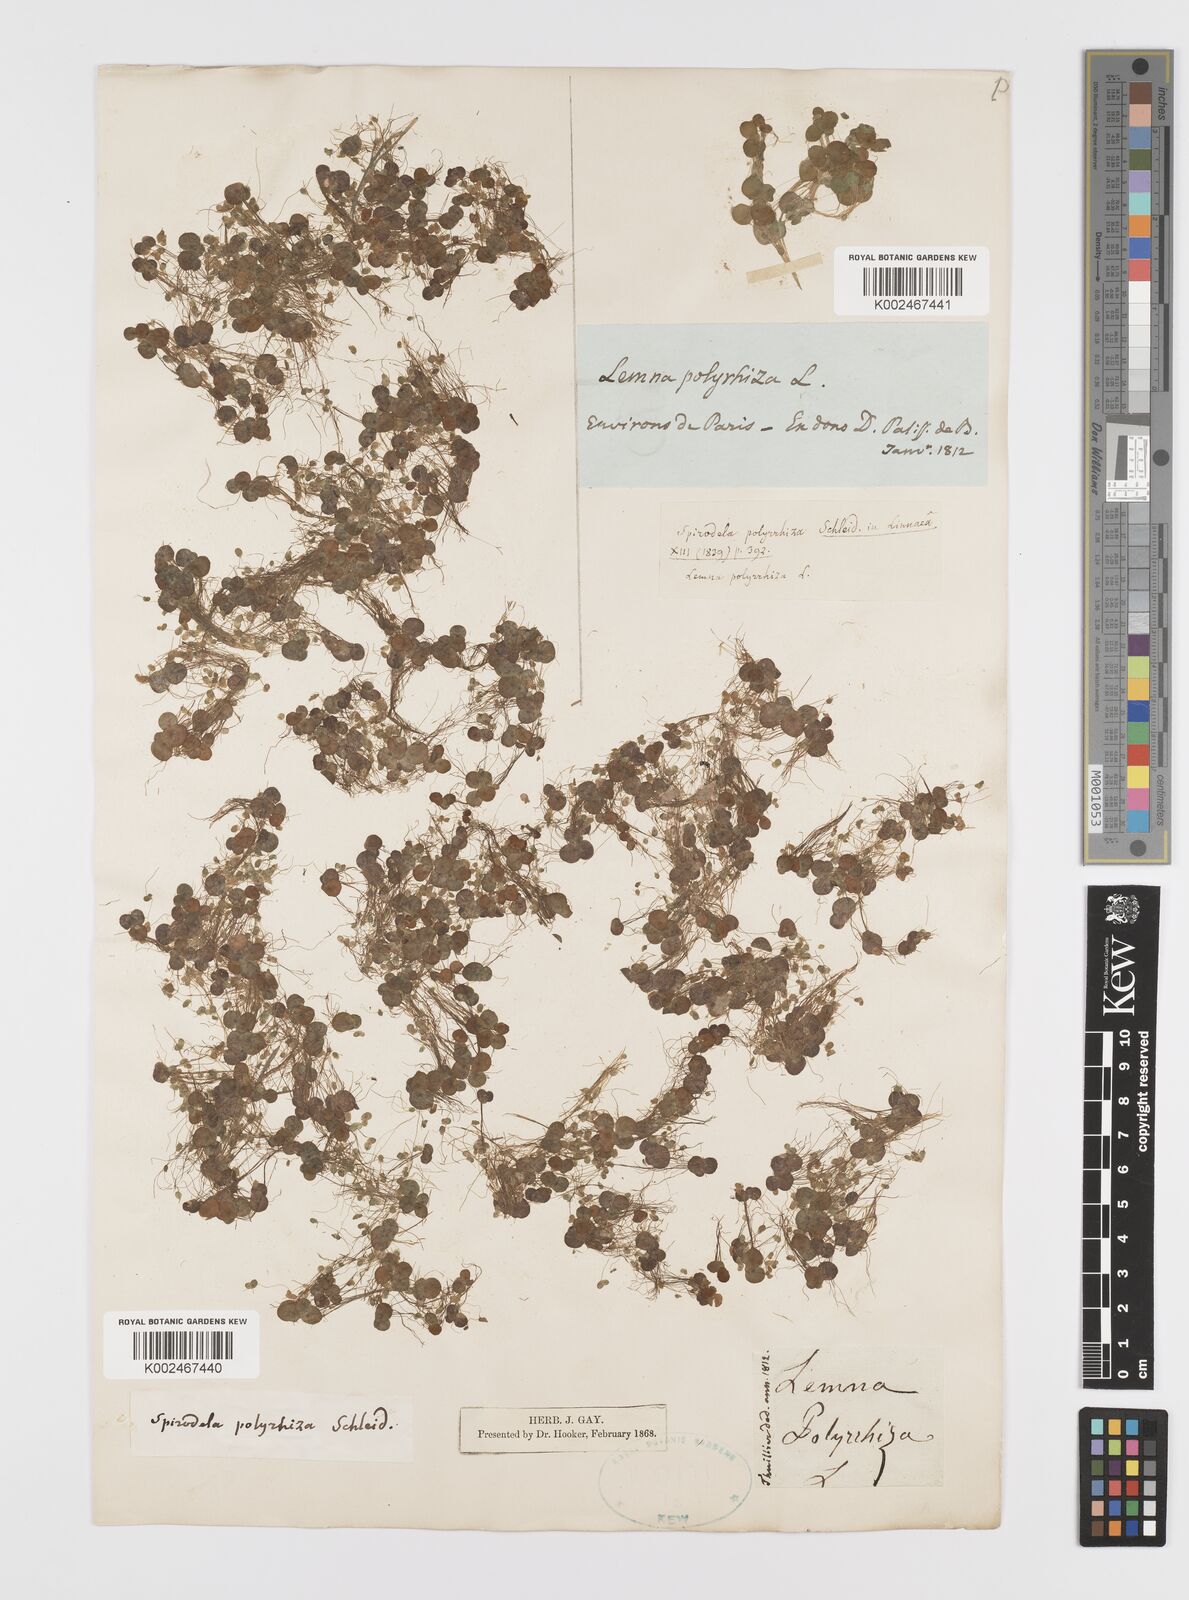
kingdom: Plantae
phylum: Tracheophyta
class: Liliopsida
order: Alismatales
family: Araceae
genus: Spirodela
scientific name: Spirodela polyrhiza
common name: Great duckweed
